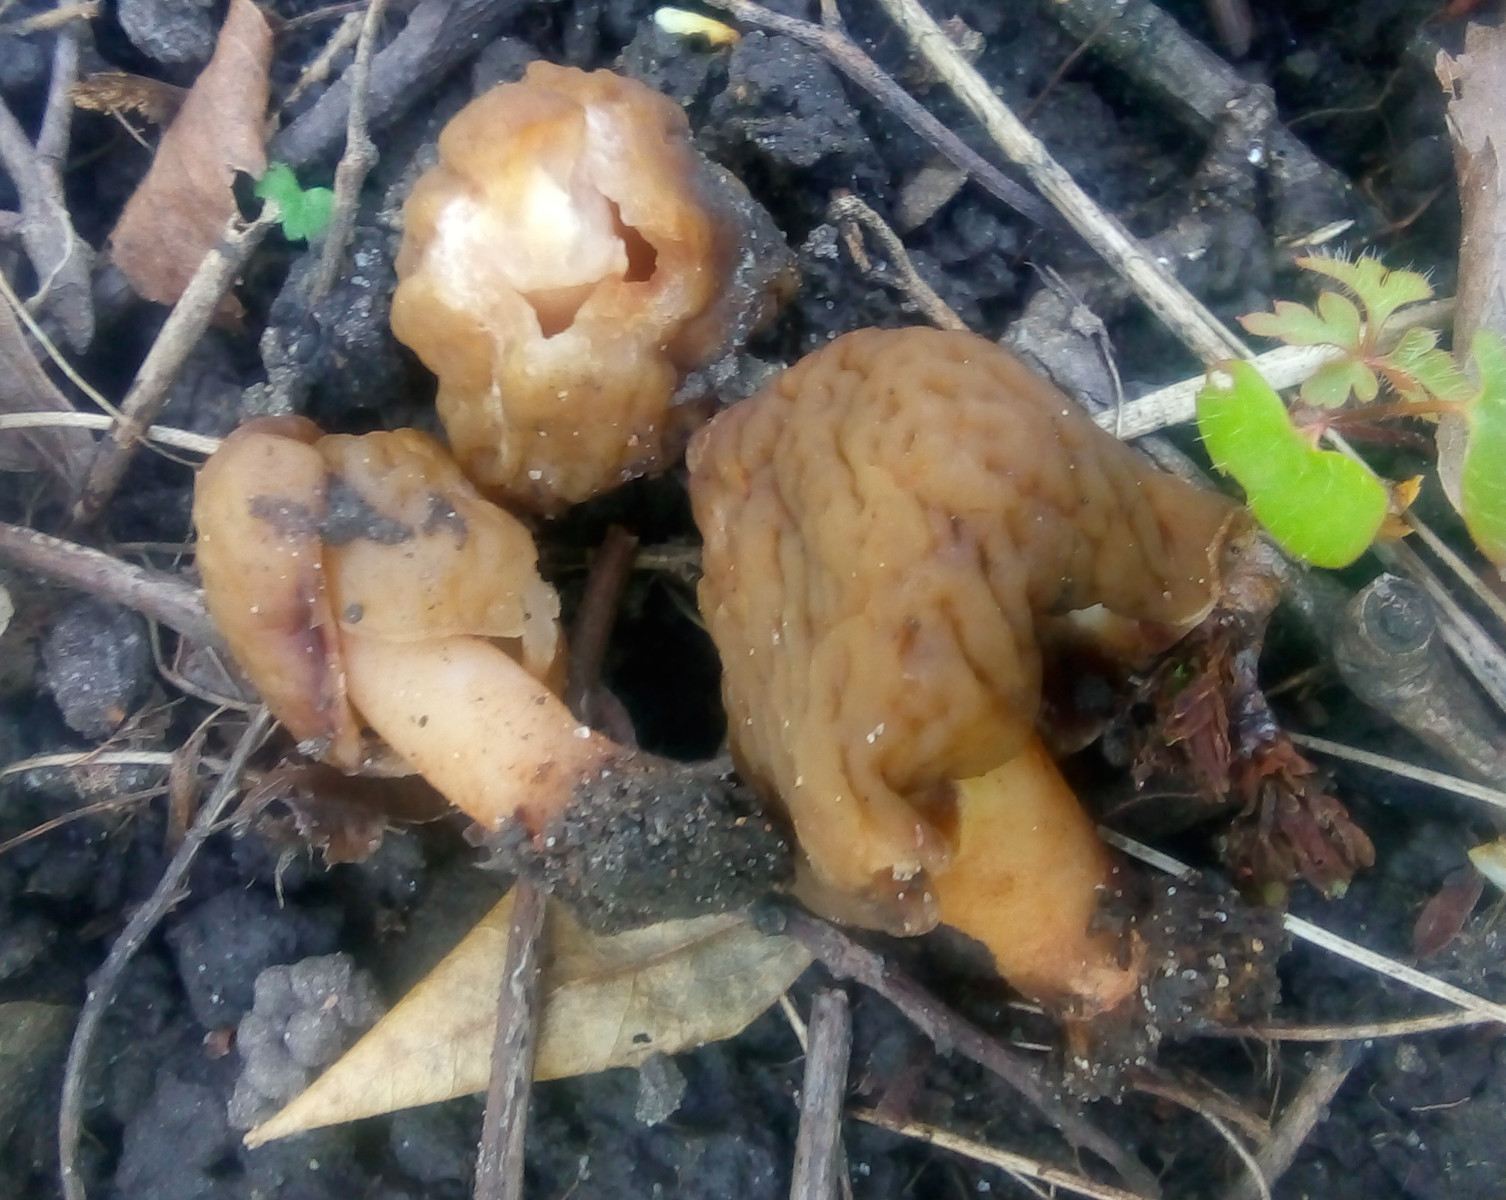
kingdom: Fungi
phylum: Ascomycota
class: Pezizomycetes
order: Pezizales
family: Morchellaceae
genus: Verpa
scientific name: Verpa conica
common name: glat klokkemorkel
